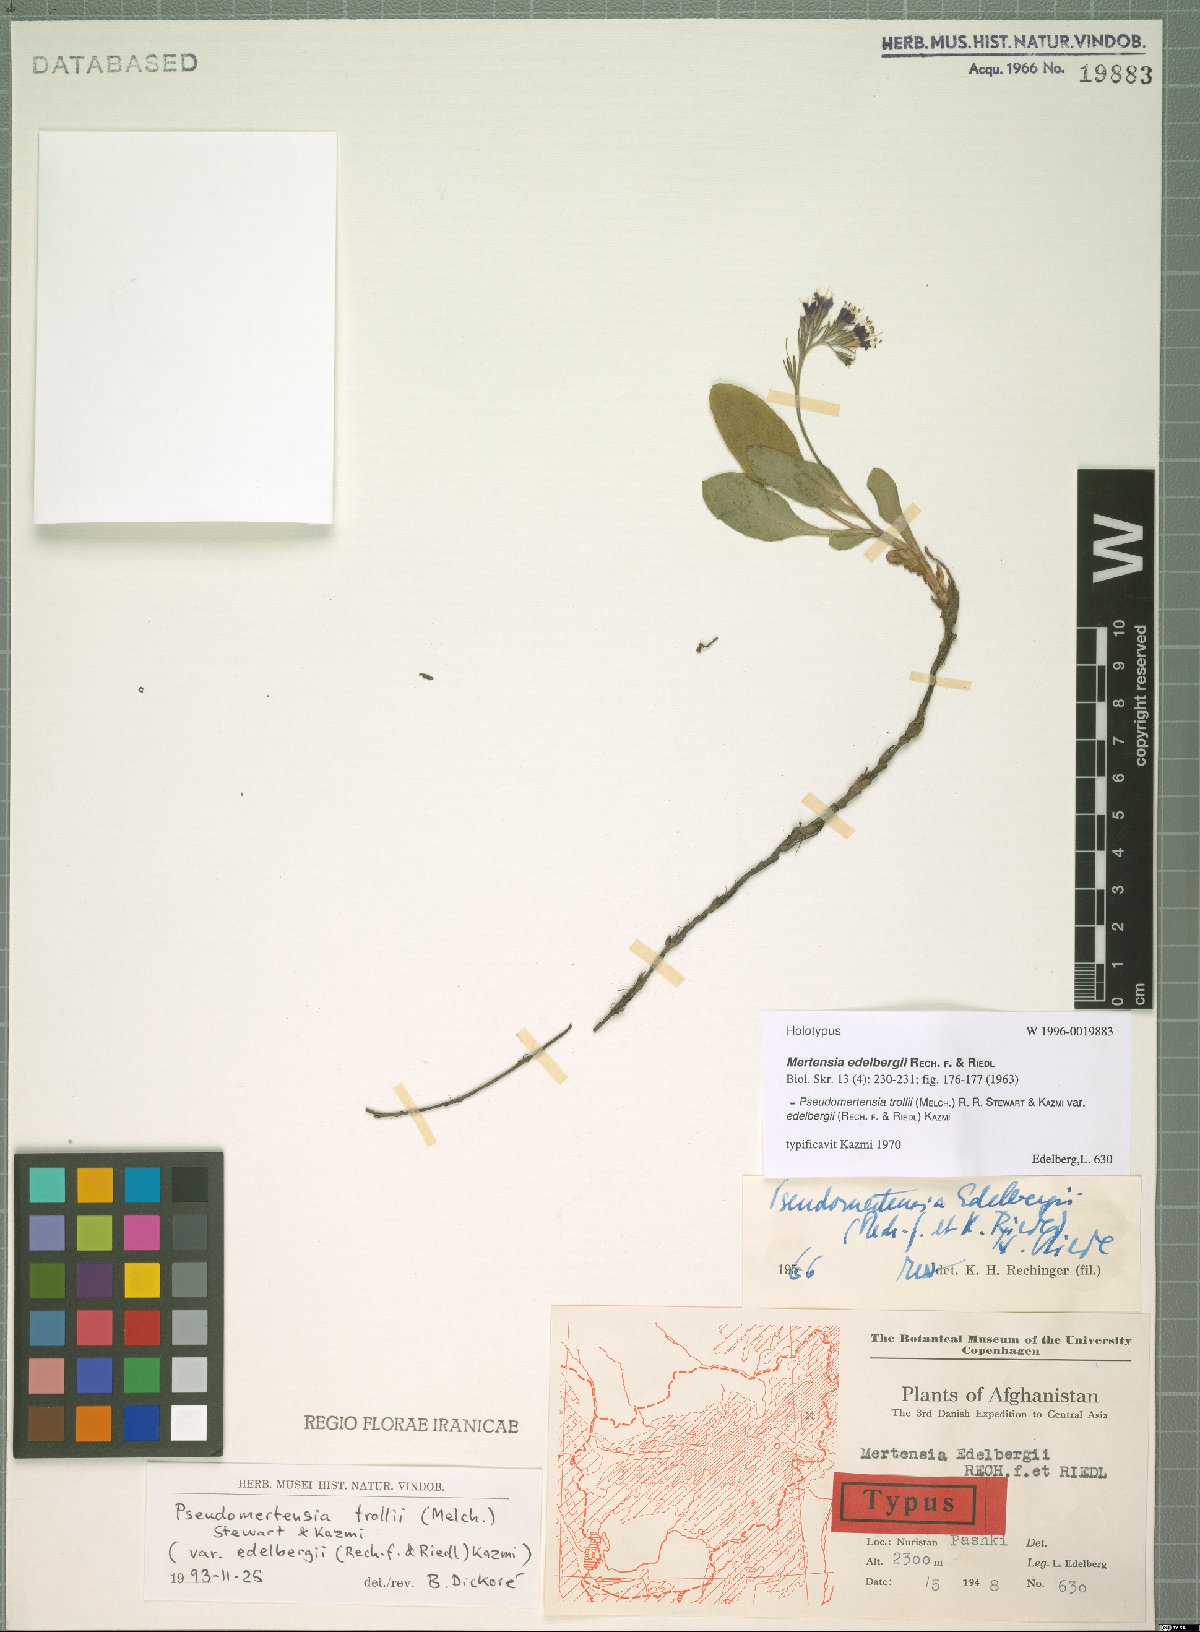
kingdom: Plantae
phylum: Tracheophyta
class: Magnoliopsida
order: Boraginales
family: Boraginaceae
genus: Decalepidanthus
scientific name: Decalepidanthus trollii
